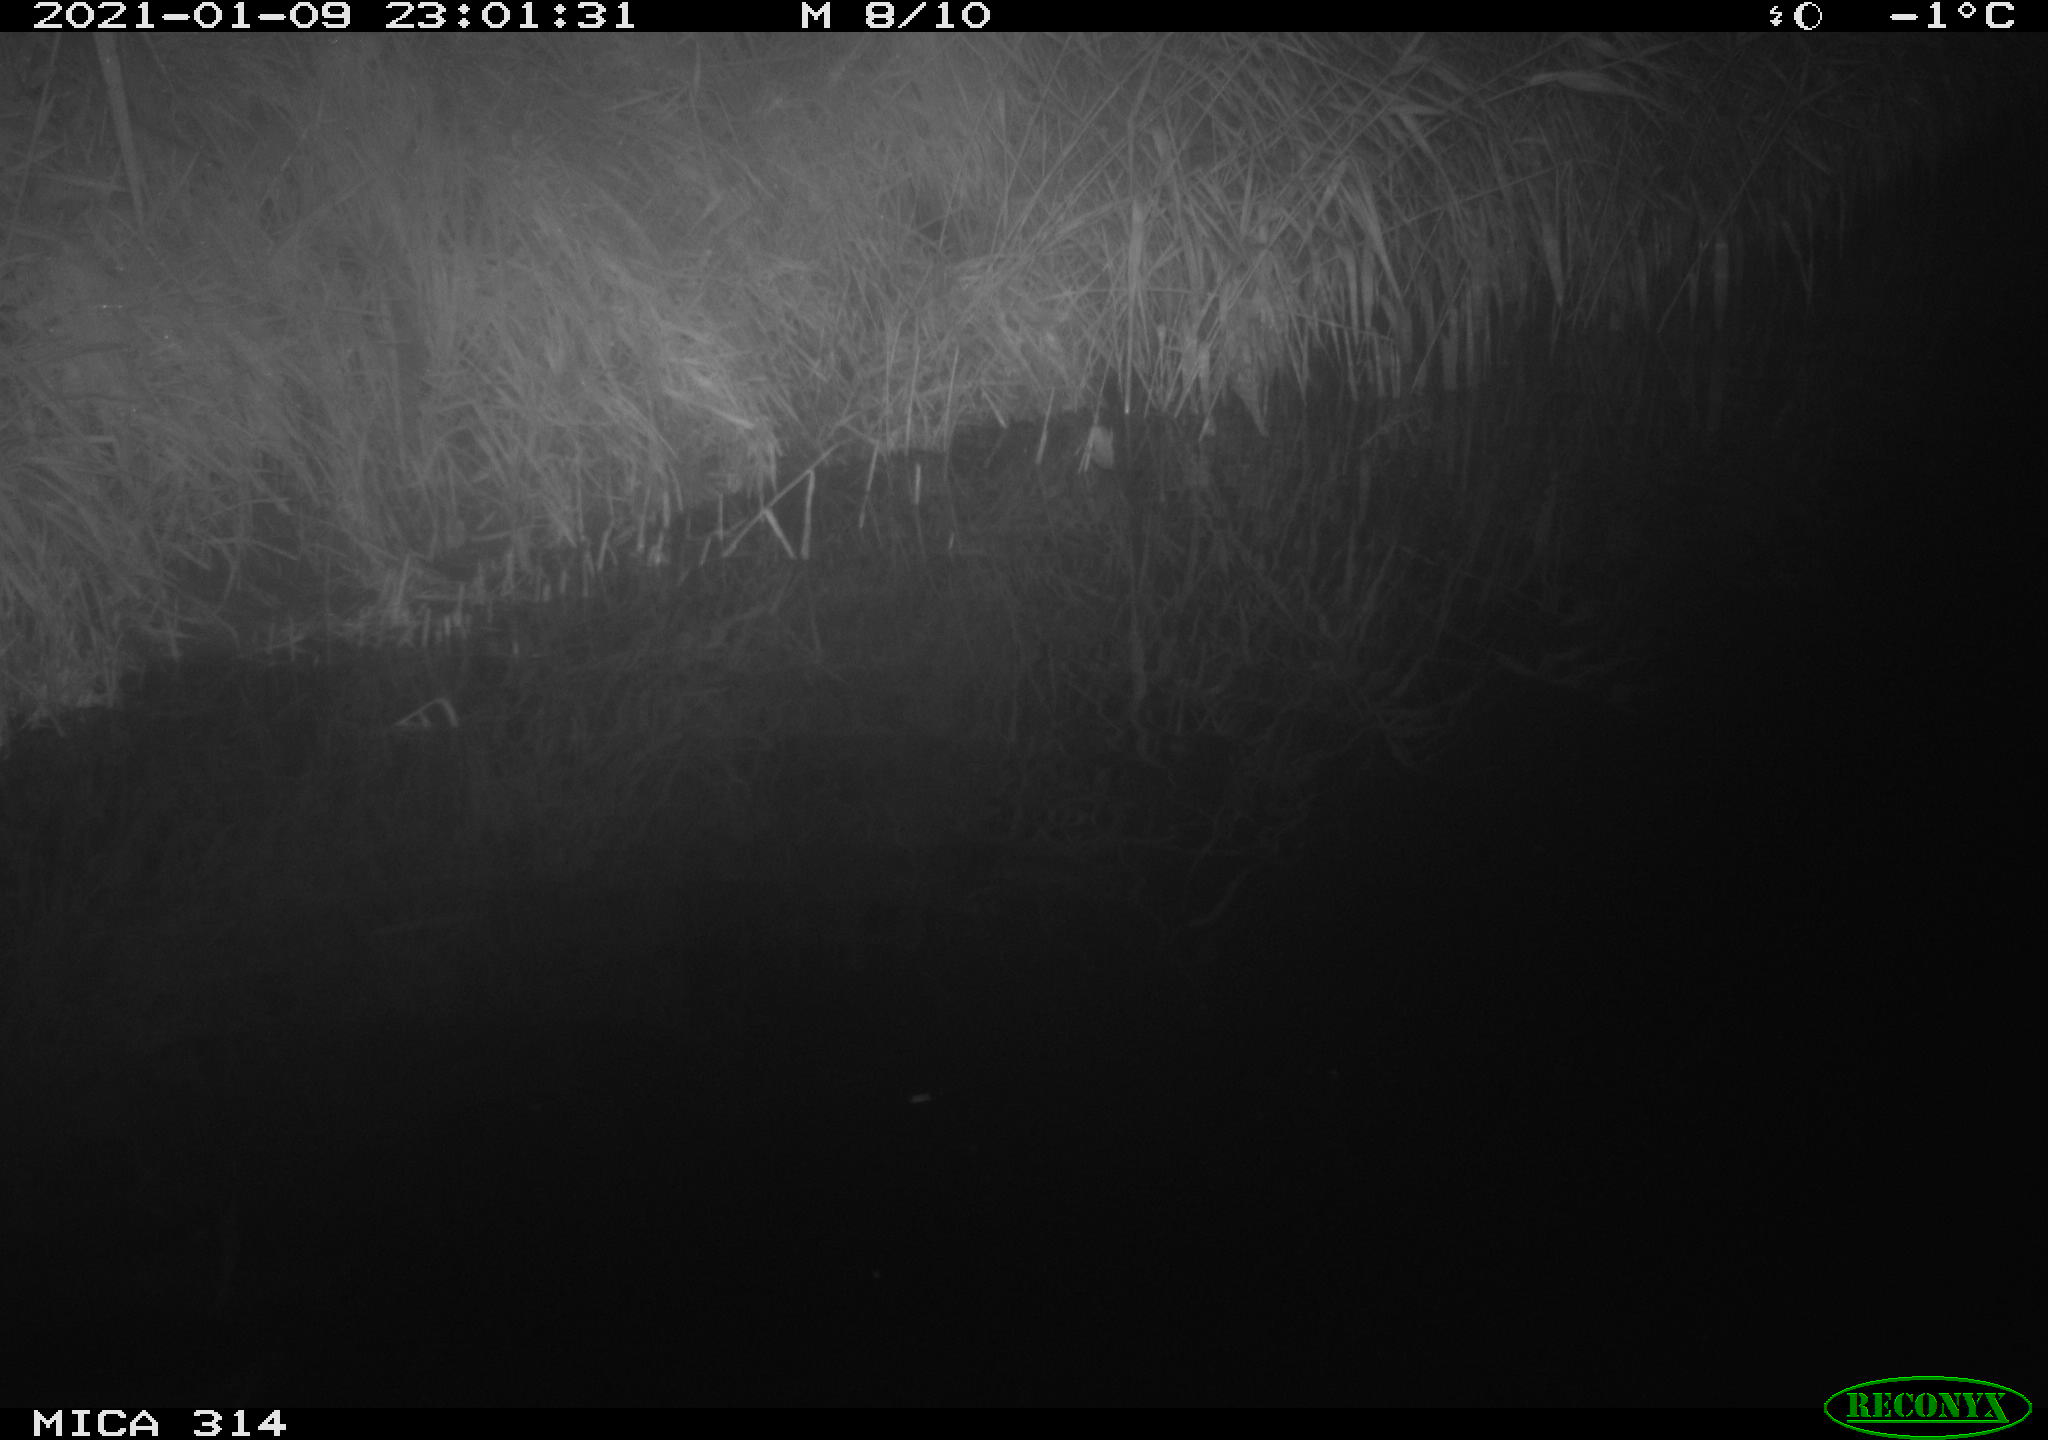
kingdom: Animalia
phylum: Chordata
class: Mammalia
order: Rodentia
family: Muridae
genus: Rattus
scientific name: Rattus norvegicus
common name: Brown rat
